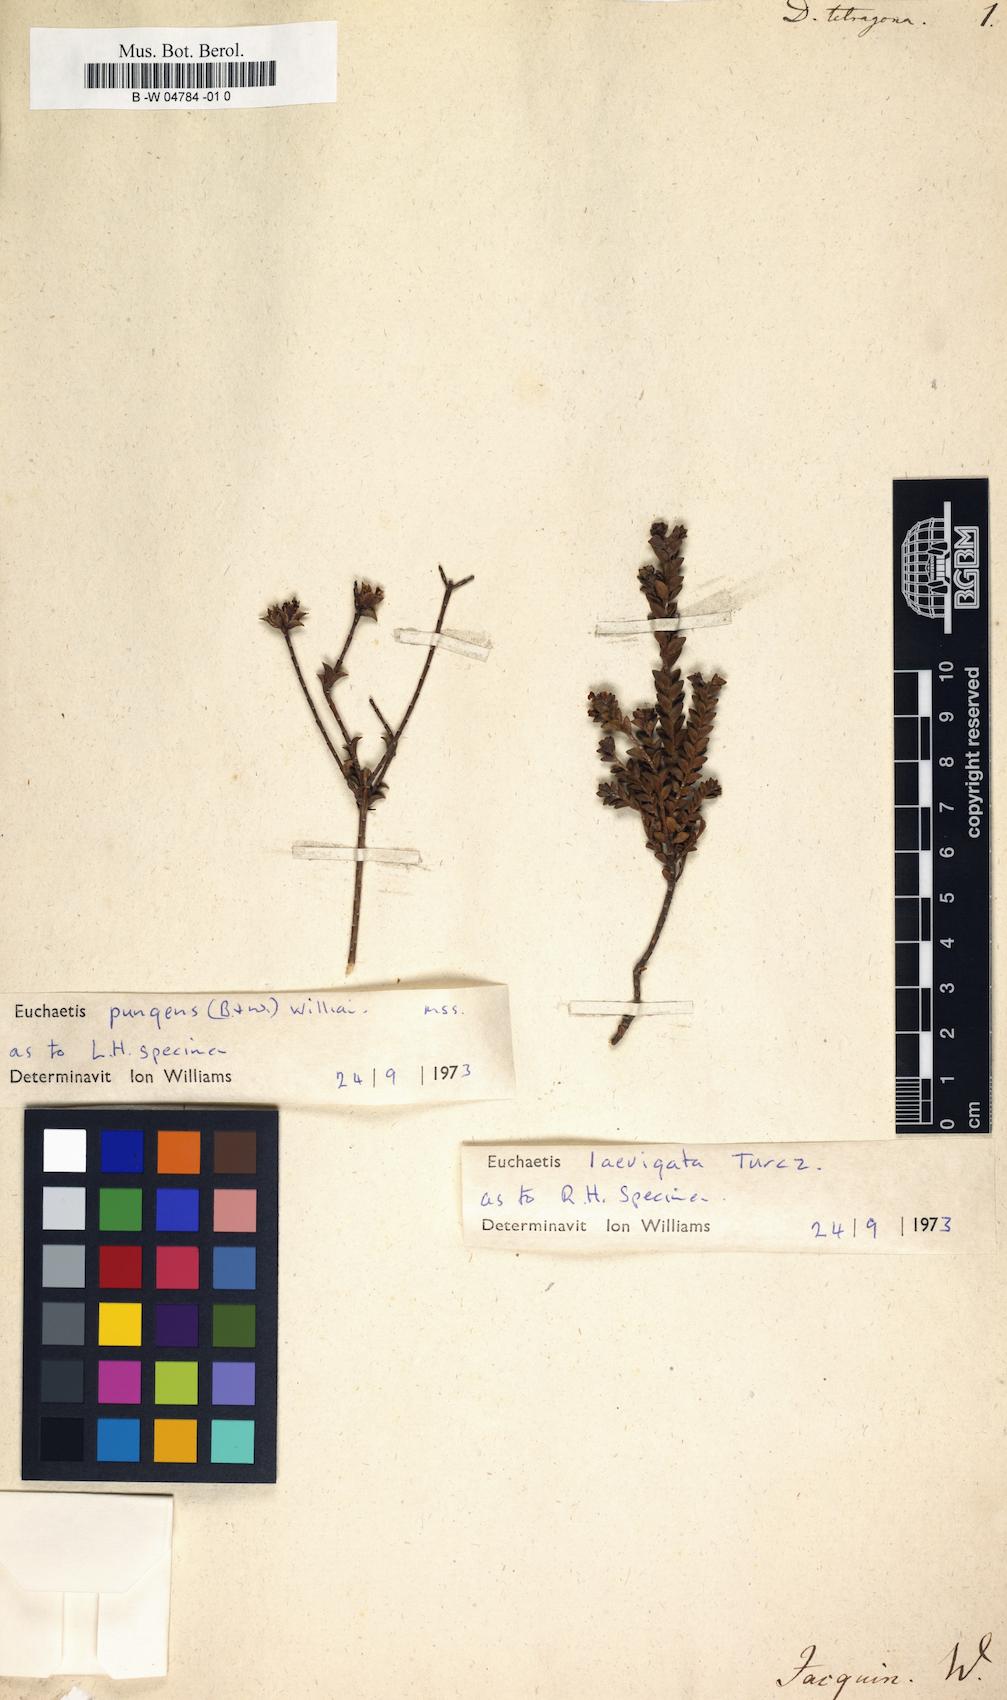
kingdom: Plantae
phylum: Tracheophyta
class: Magnoliopsida
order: Sapindales
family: Rutaceae
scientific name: Rutaceae
